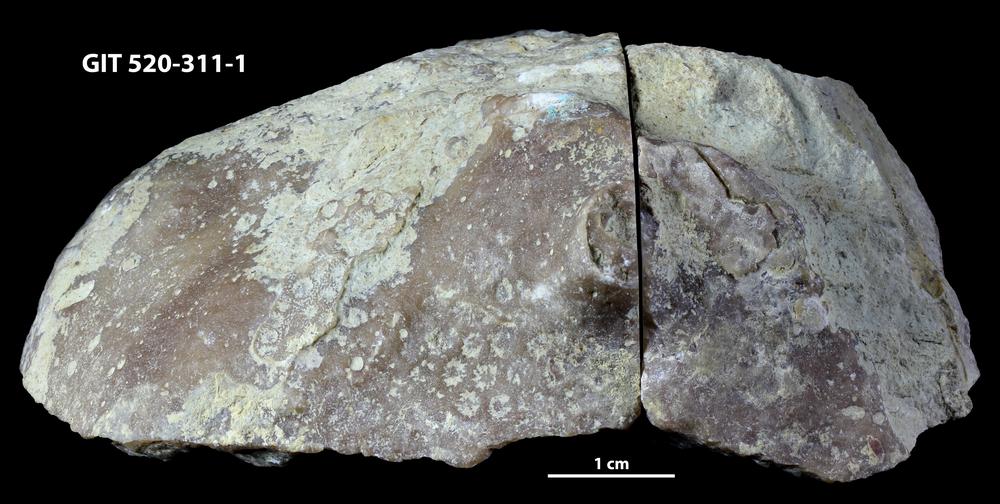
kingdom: Animalia
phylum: Cnidaria
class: Anthozoa
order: Scleractinia
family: Poritidae
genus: Protaraea
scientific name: Protaraea
